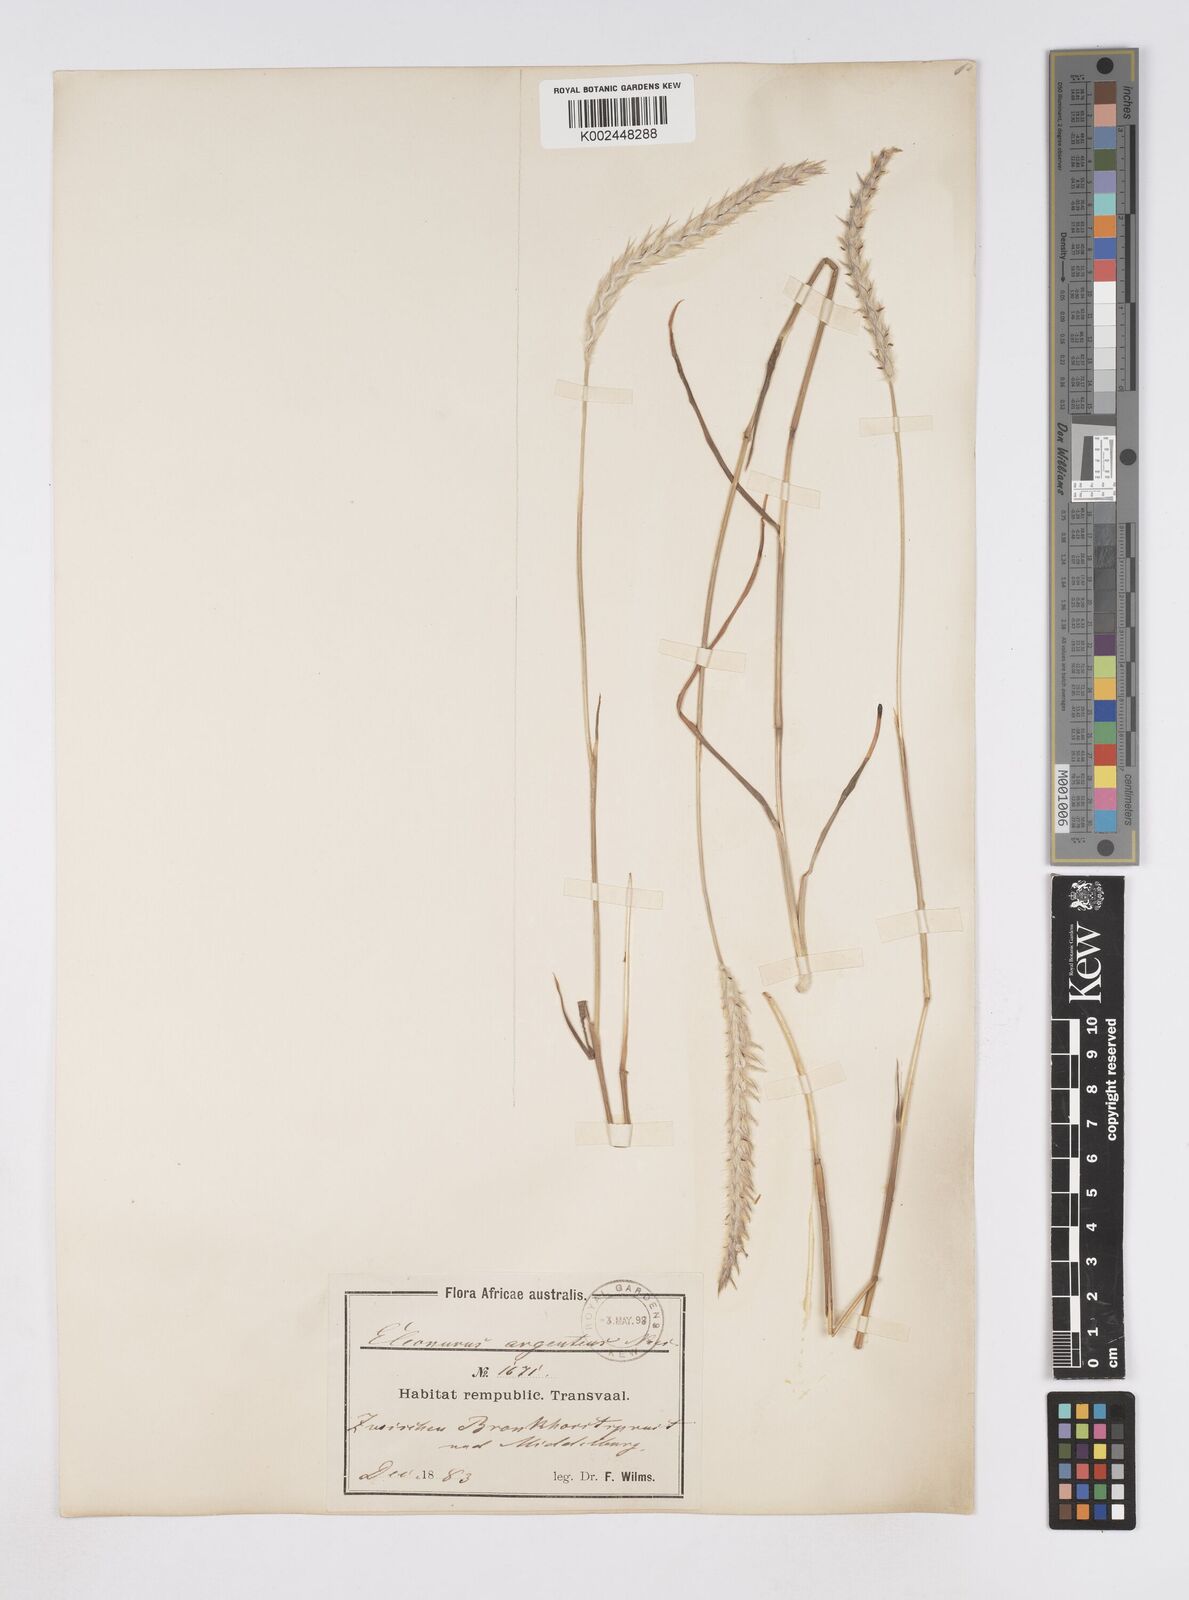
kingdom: Plantae
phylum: Tracheophyta
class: Liliopsida
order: Poales
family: Poaceae
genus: Elionurus
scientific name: Elionurus muticus
